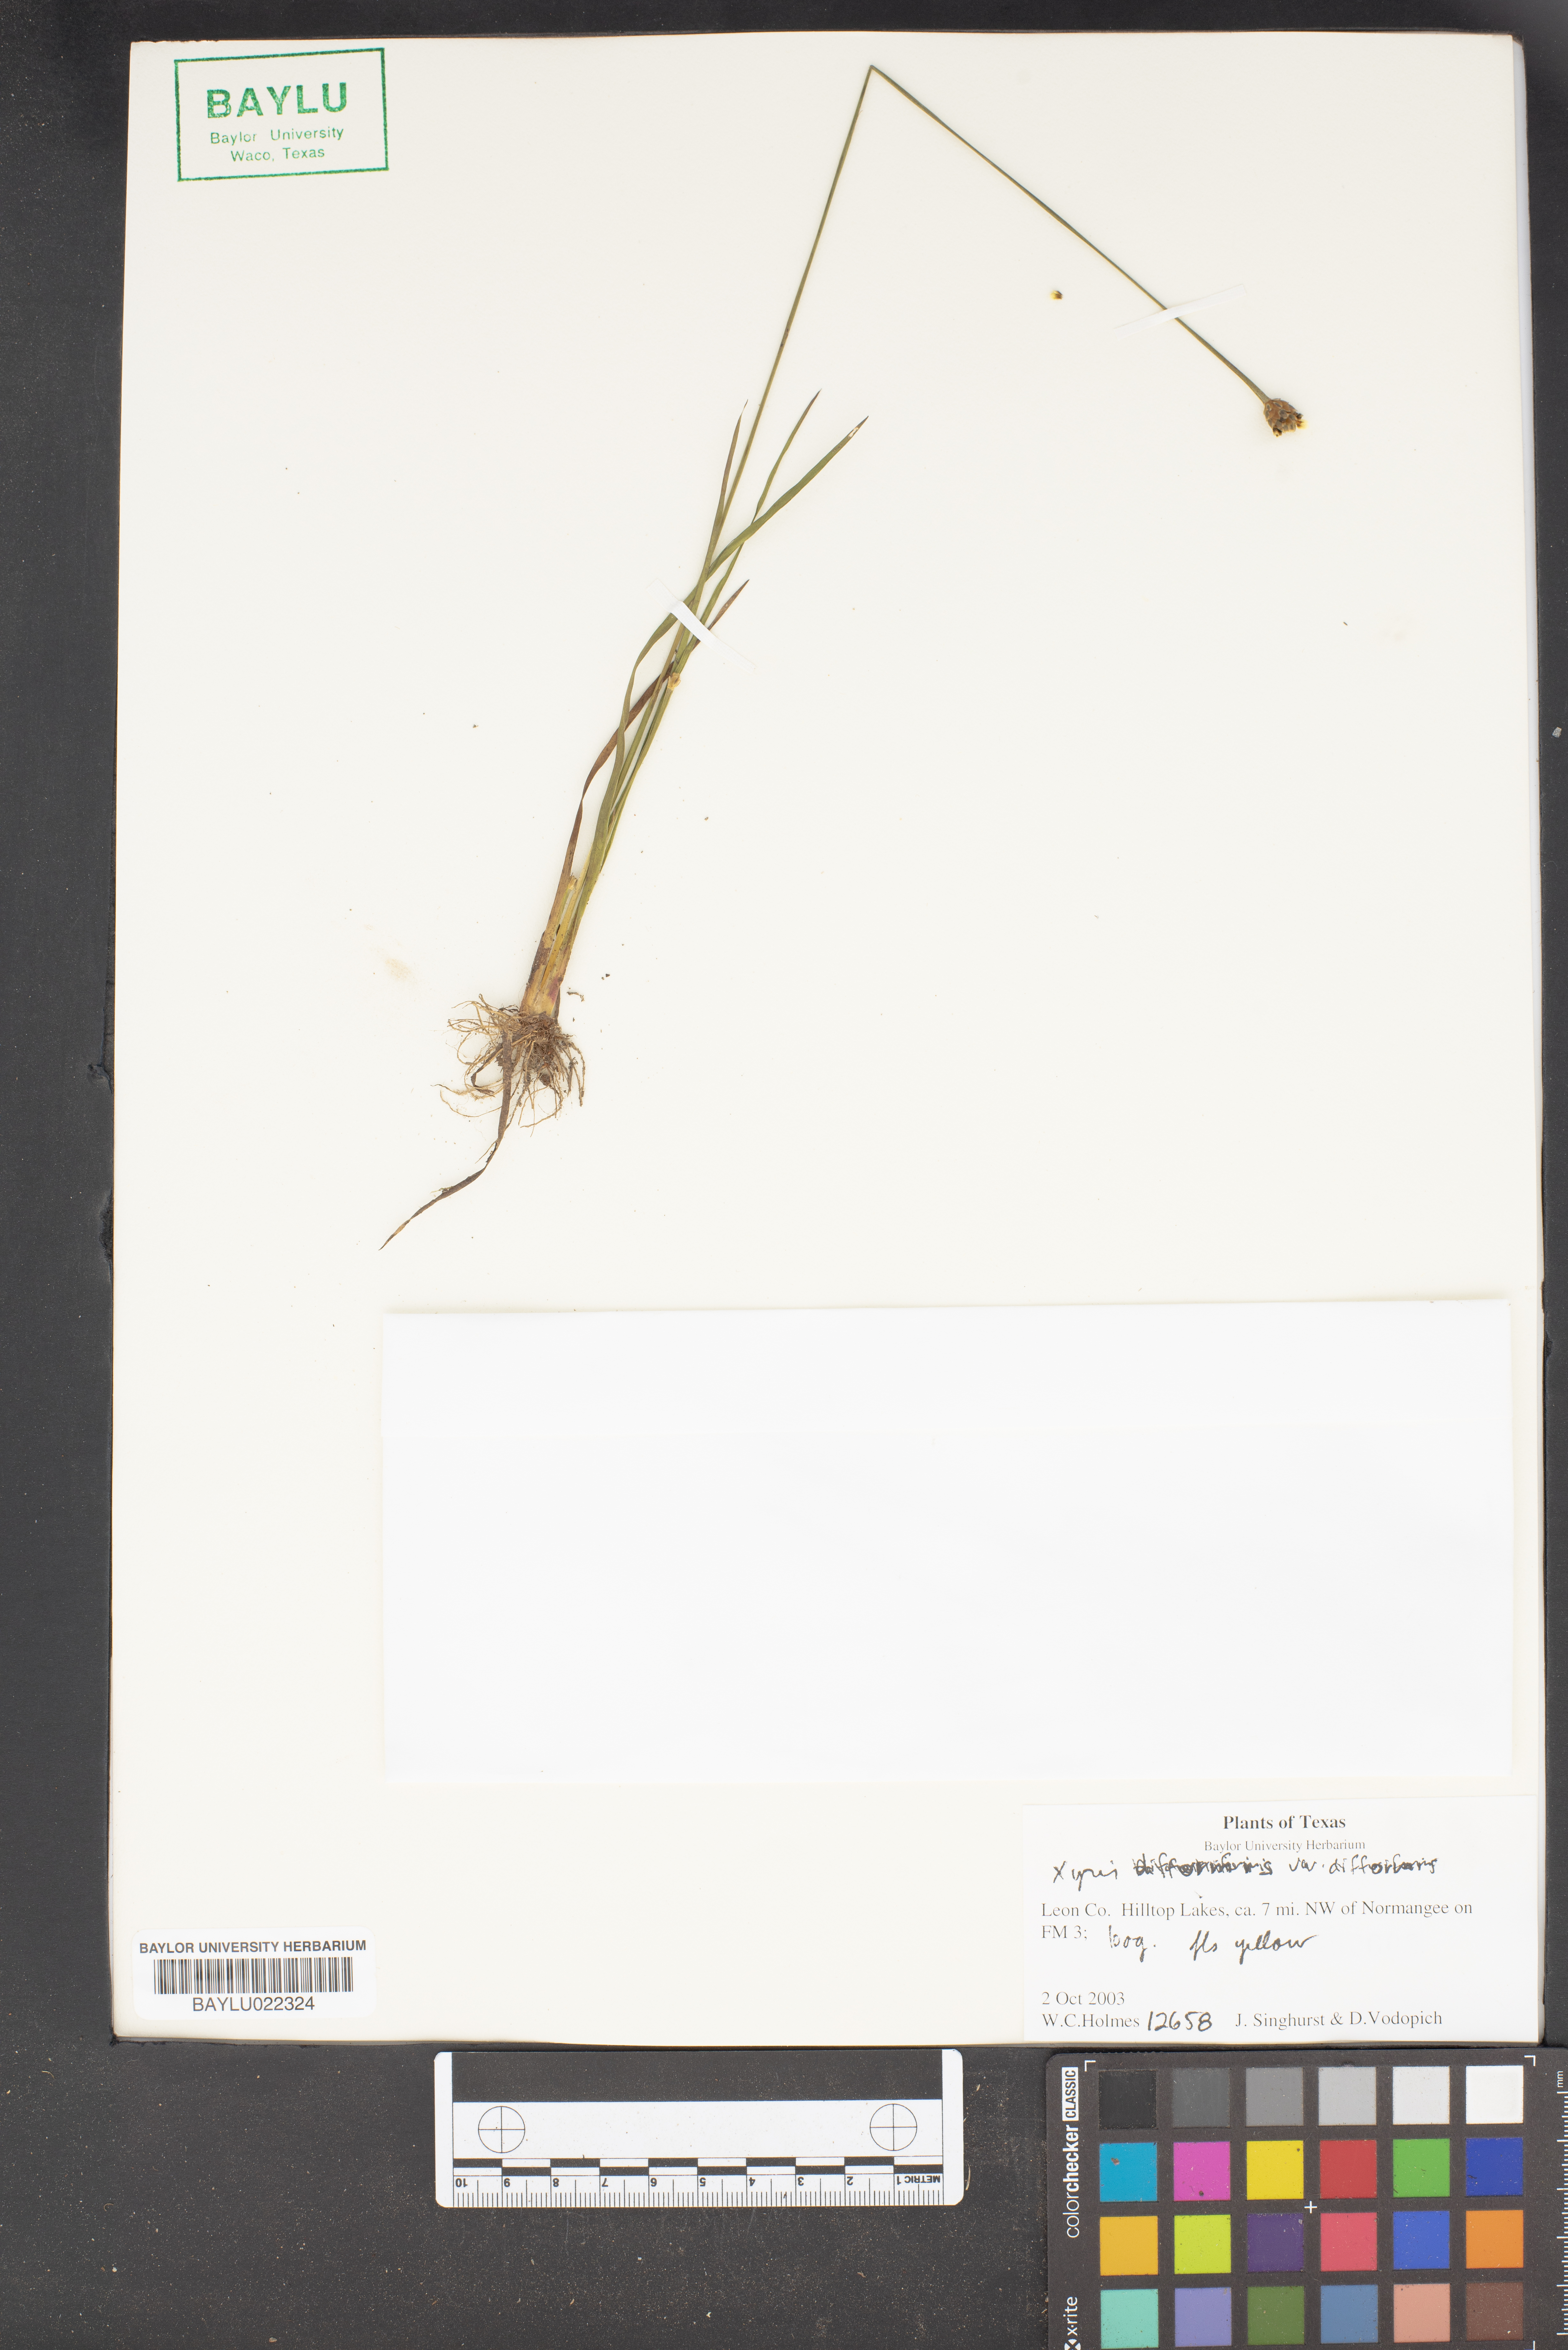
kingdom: Plantae
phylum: Tracheophyta
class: Liliopsida
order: Poales
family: Xyridaceae
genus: Xyris
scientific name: Xyris difformis
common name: Bog yellow-eyed-grass
